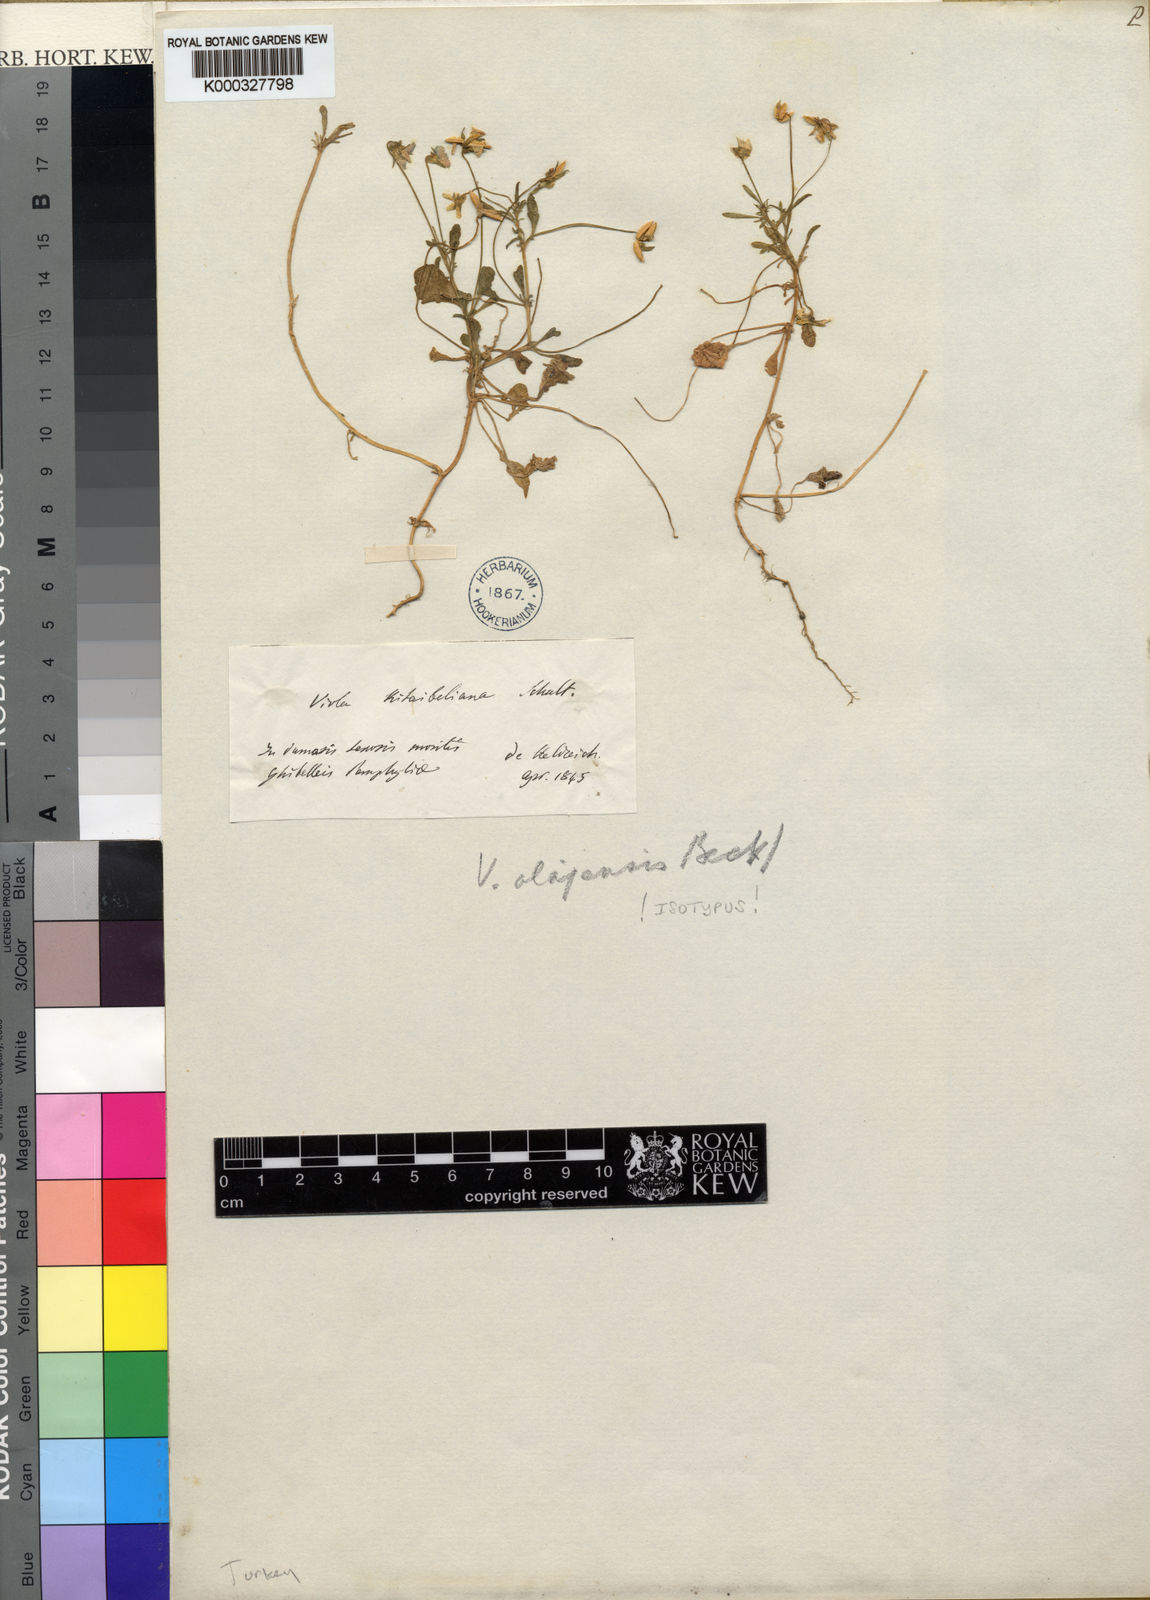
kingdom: Plantae
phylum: Tracheophyta
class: Magnoliopsida
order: Malpighiales
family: Violaceae
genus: Viola
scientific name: Viola heldreichiana
